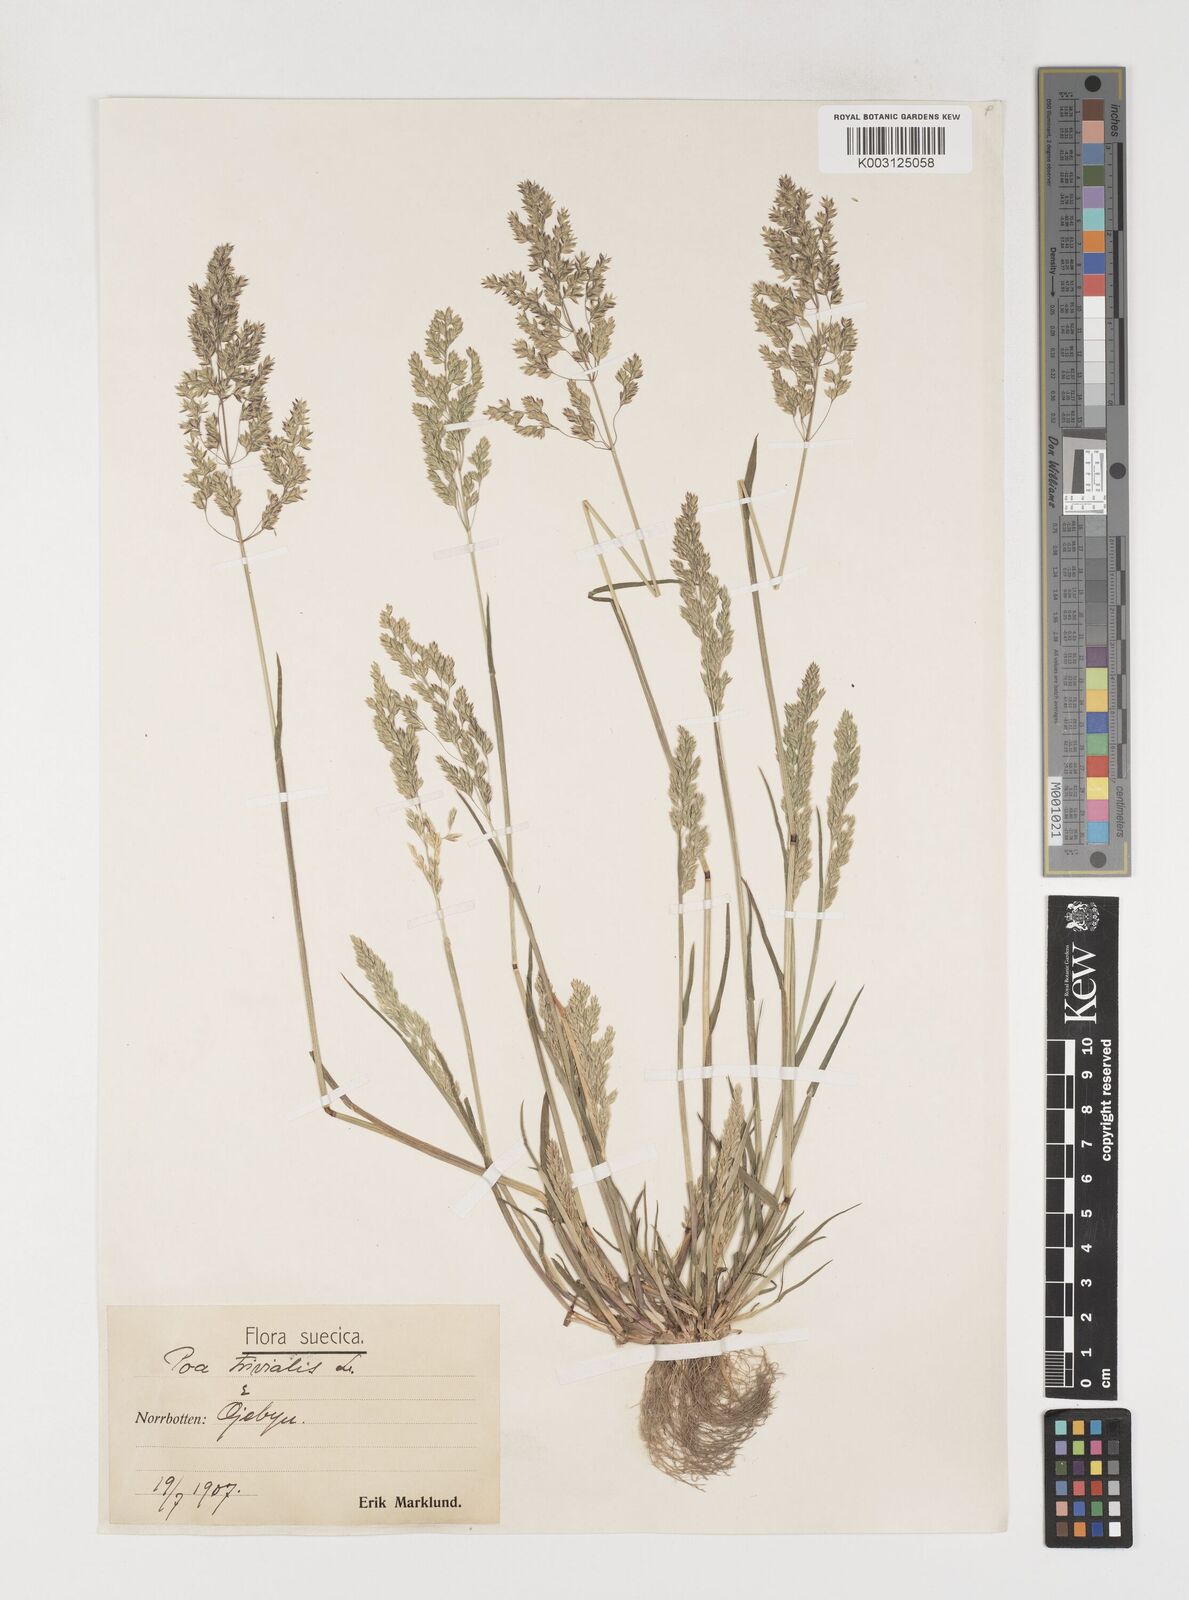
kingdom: Plantae
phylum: Tracheophyta
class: Liliopsida
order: Poales
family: Poaceae
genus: Poa
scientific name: Poa trivialis
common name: Rough bluegrass
